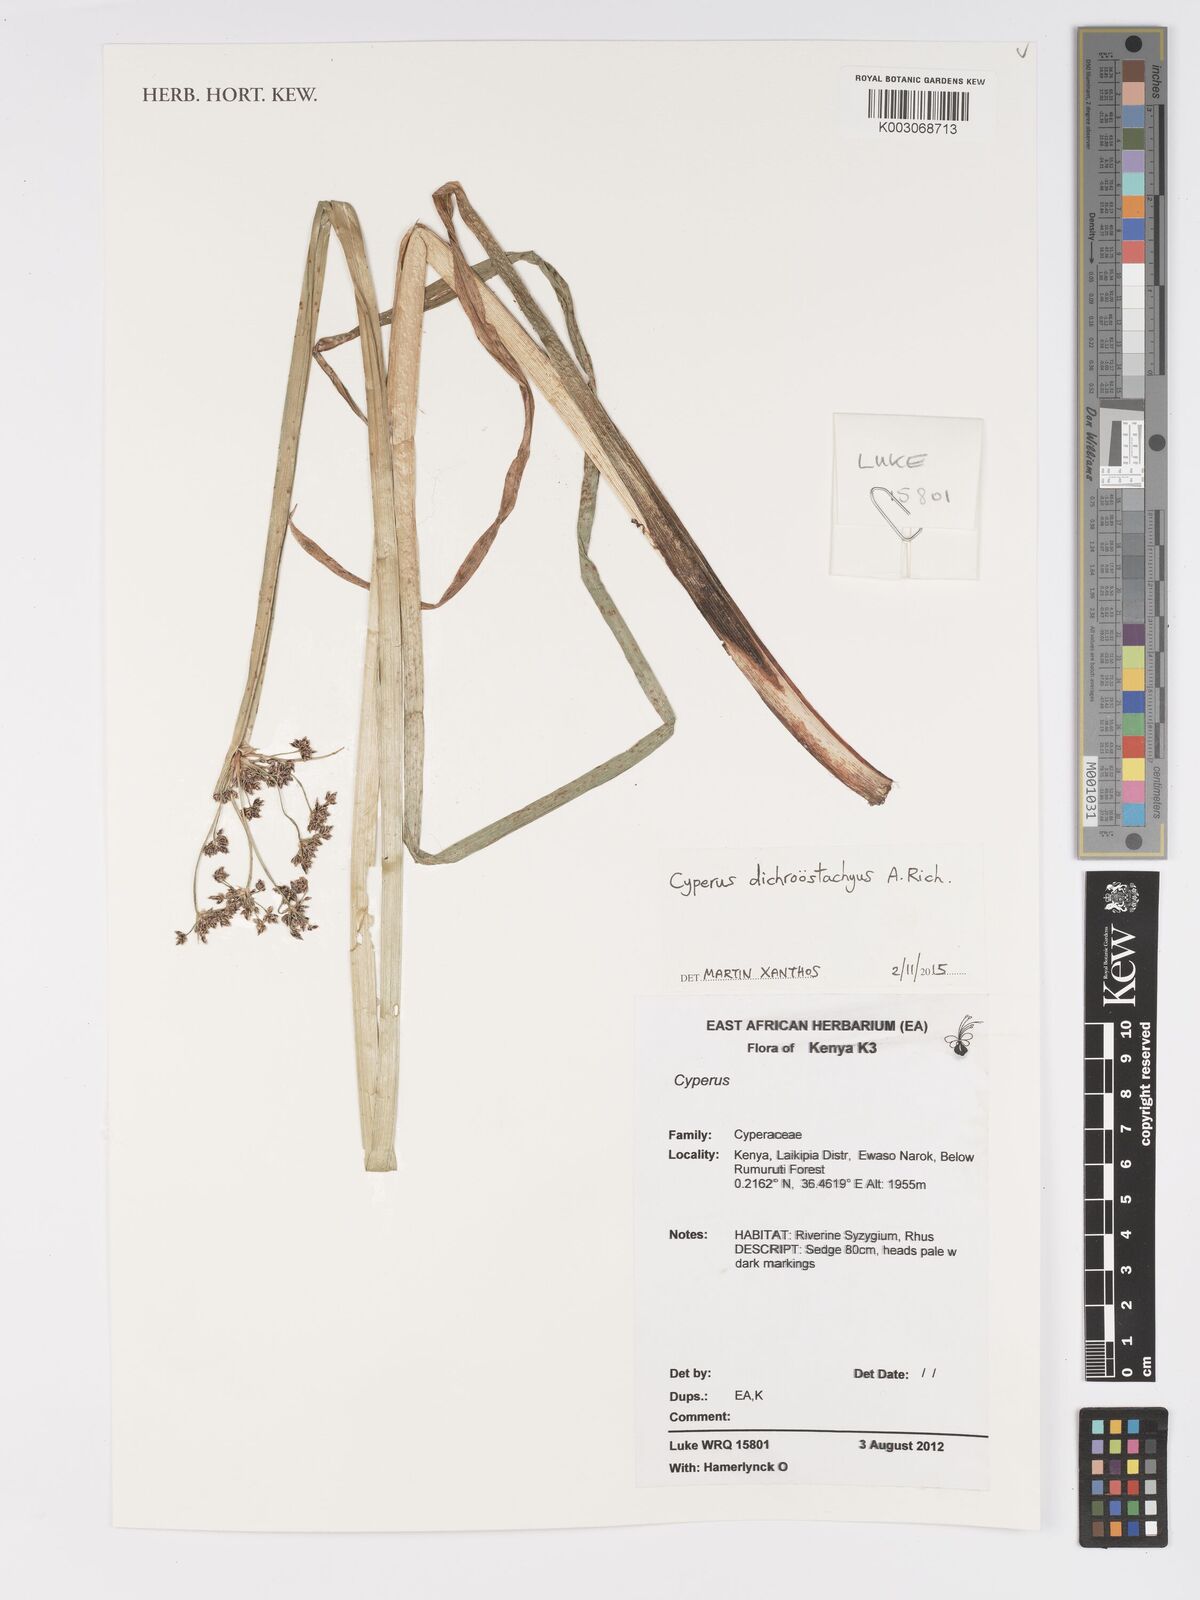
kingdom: Plantae
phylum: Tracheophyta
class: Liliopsida
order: Poales
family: Cyperaceae
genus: Cyperus
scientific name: Cyperus dichrostachyus
